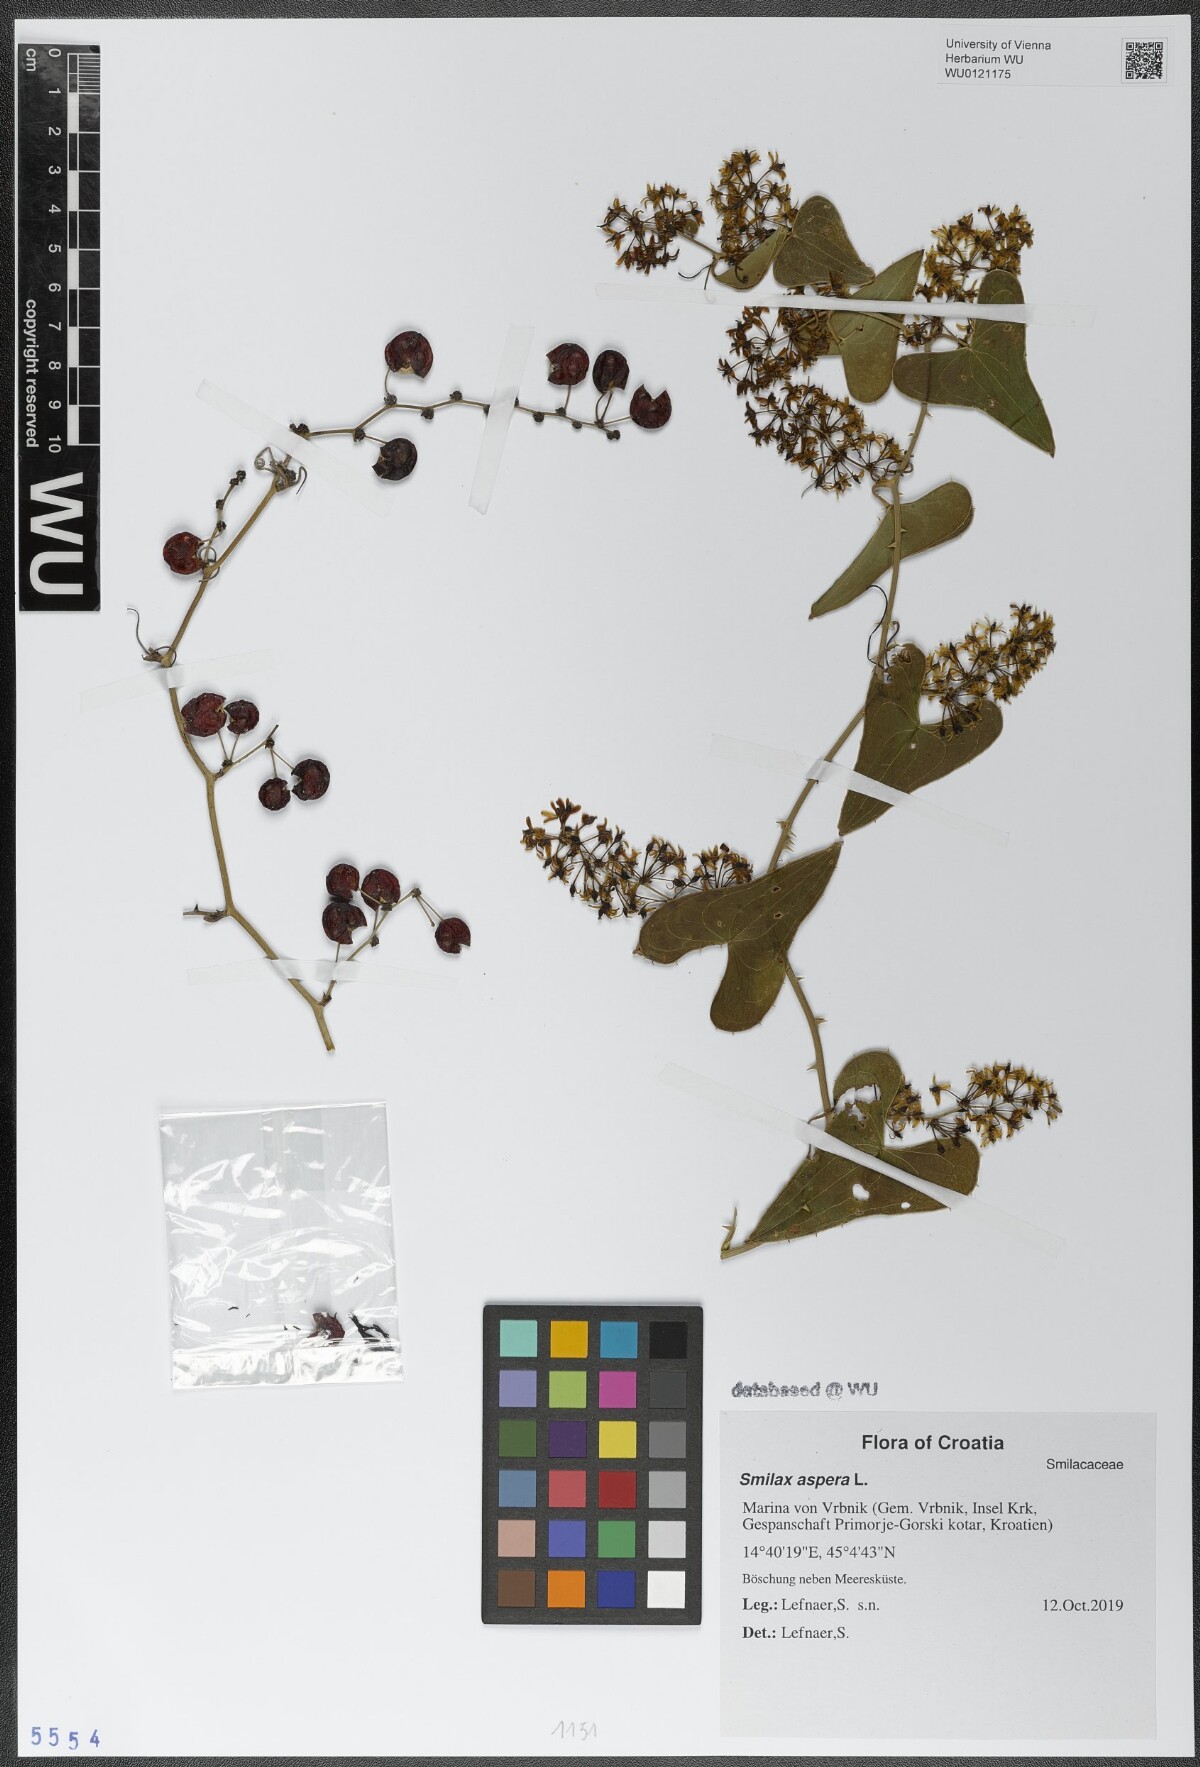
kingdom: Plantae
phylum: Tracheophyta
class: Liliopsida
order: Liliales
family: Smilacaceae
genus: Smilax
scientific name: Smilax aspera
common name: Common smilax
